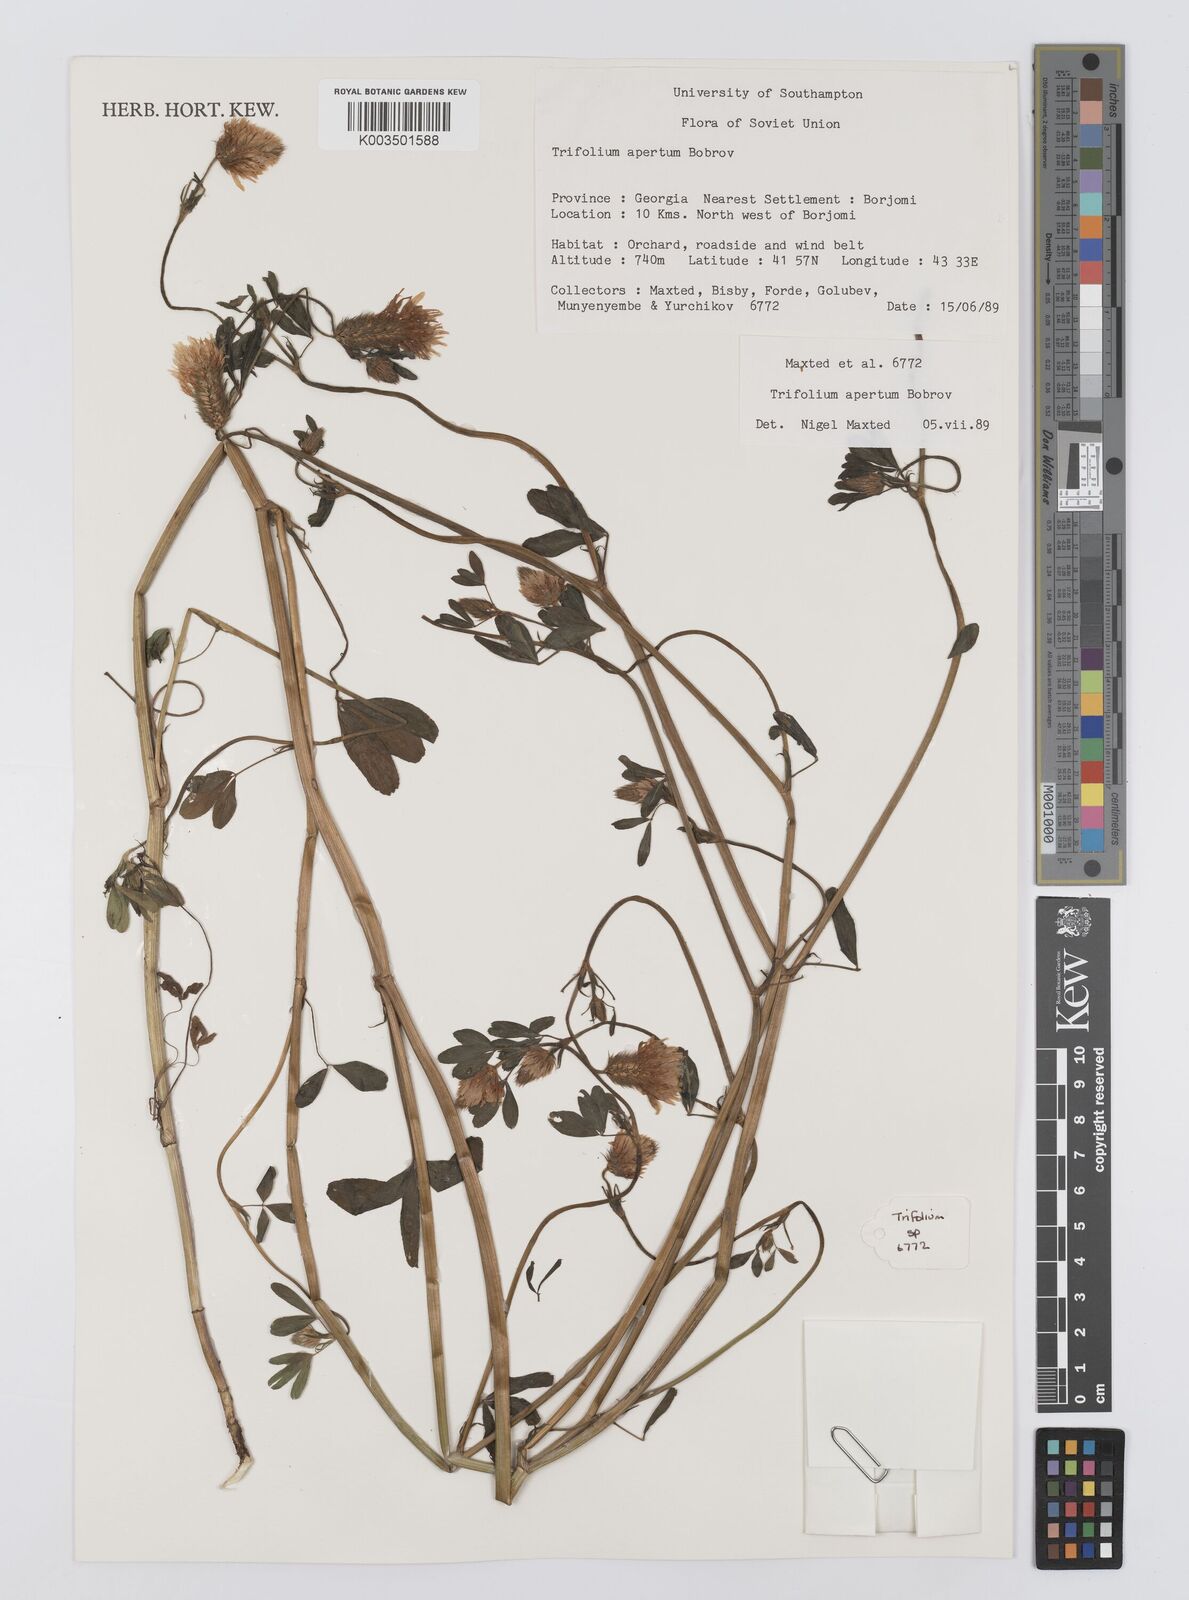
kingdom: Plantae
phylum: Tracheophyta
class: Magnoliopsida
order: Fabales
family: Fabaceae
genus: Trifolium
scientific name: Trifolium apertum
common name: Open clover
